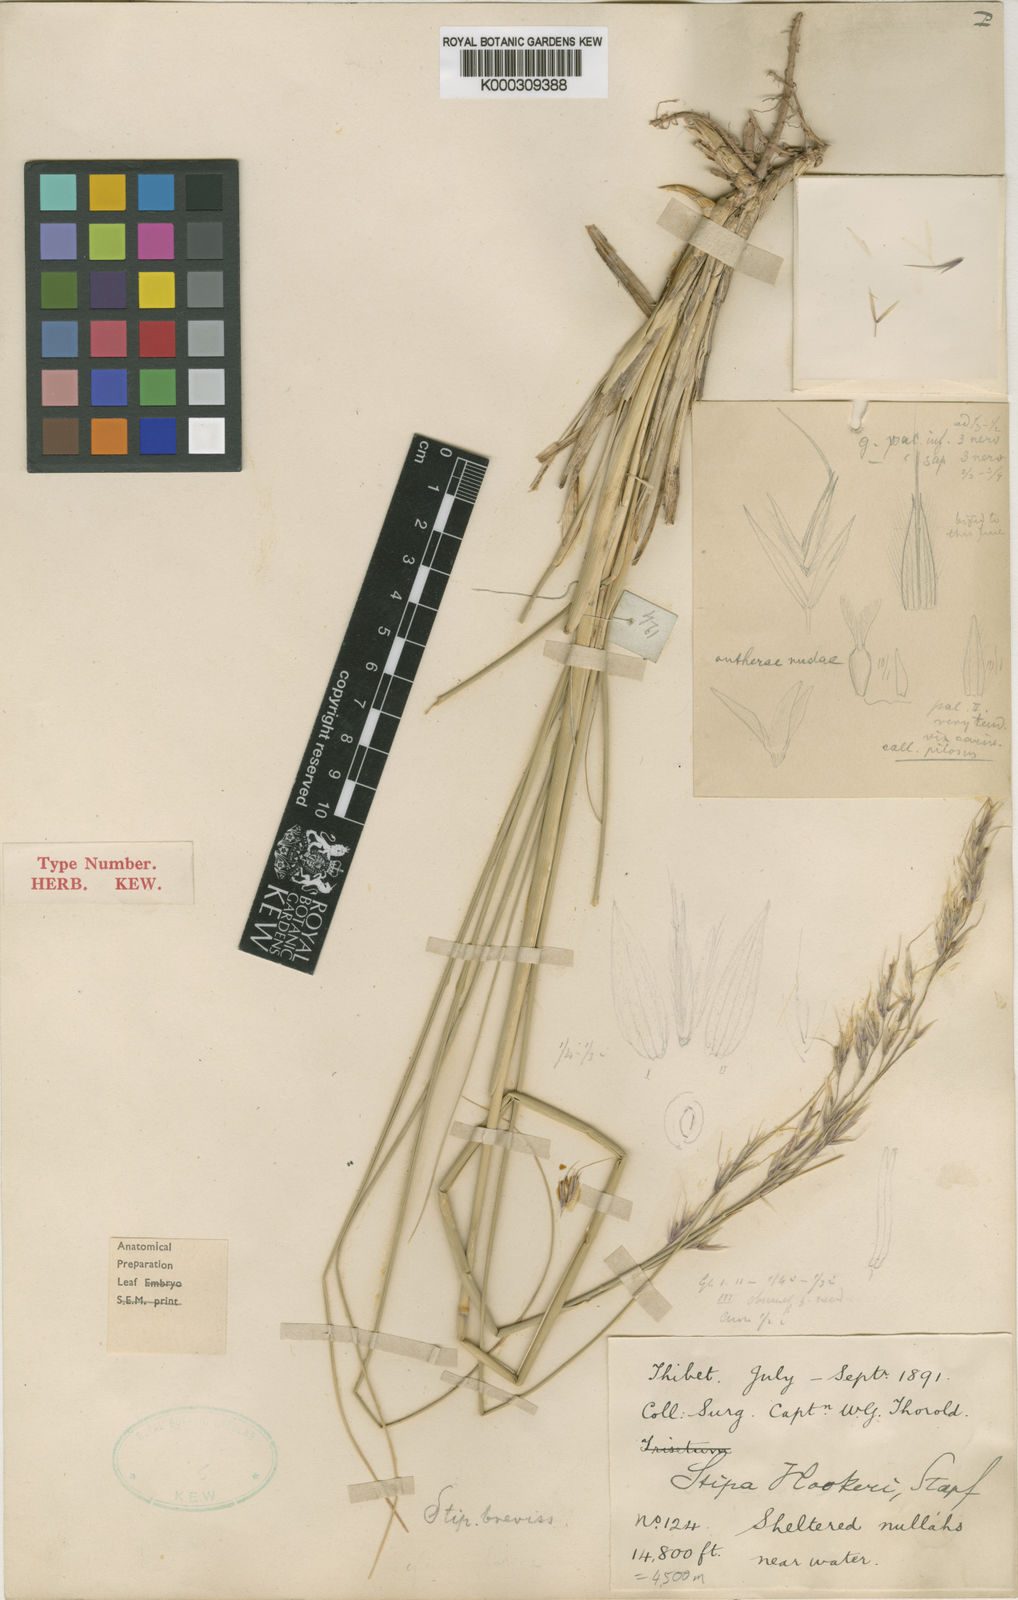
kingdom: Plantae
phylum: Tracheophyta
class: Liliopsida
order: Poales
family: Poaceae
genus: Trikeraia
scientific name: Trikeraia hookeri
